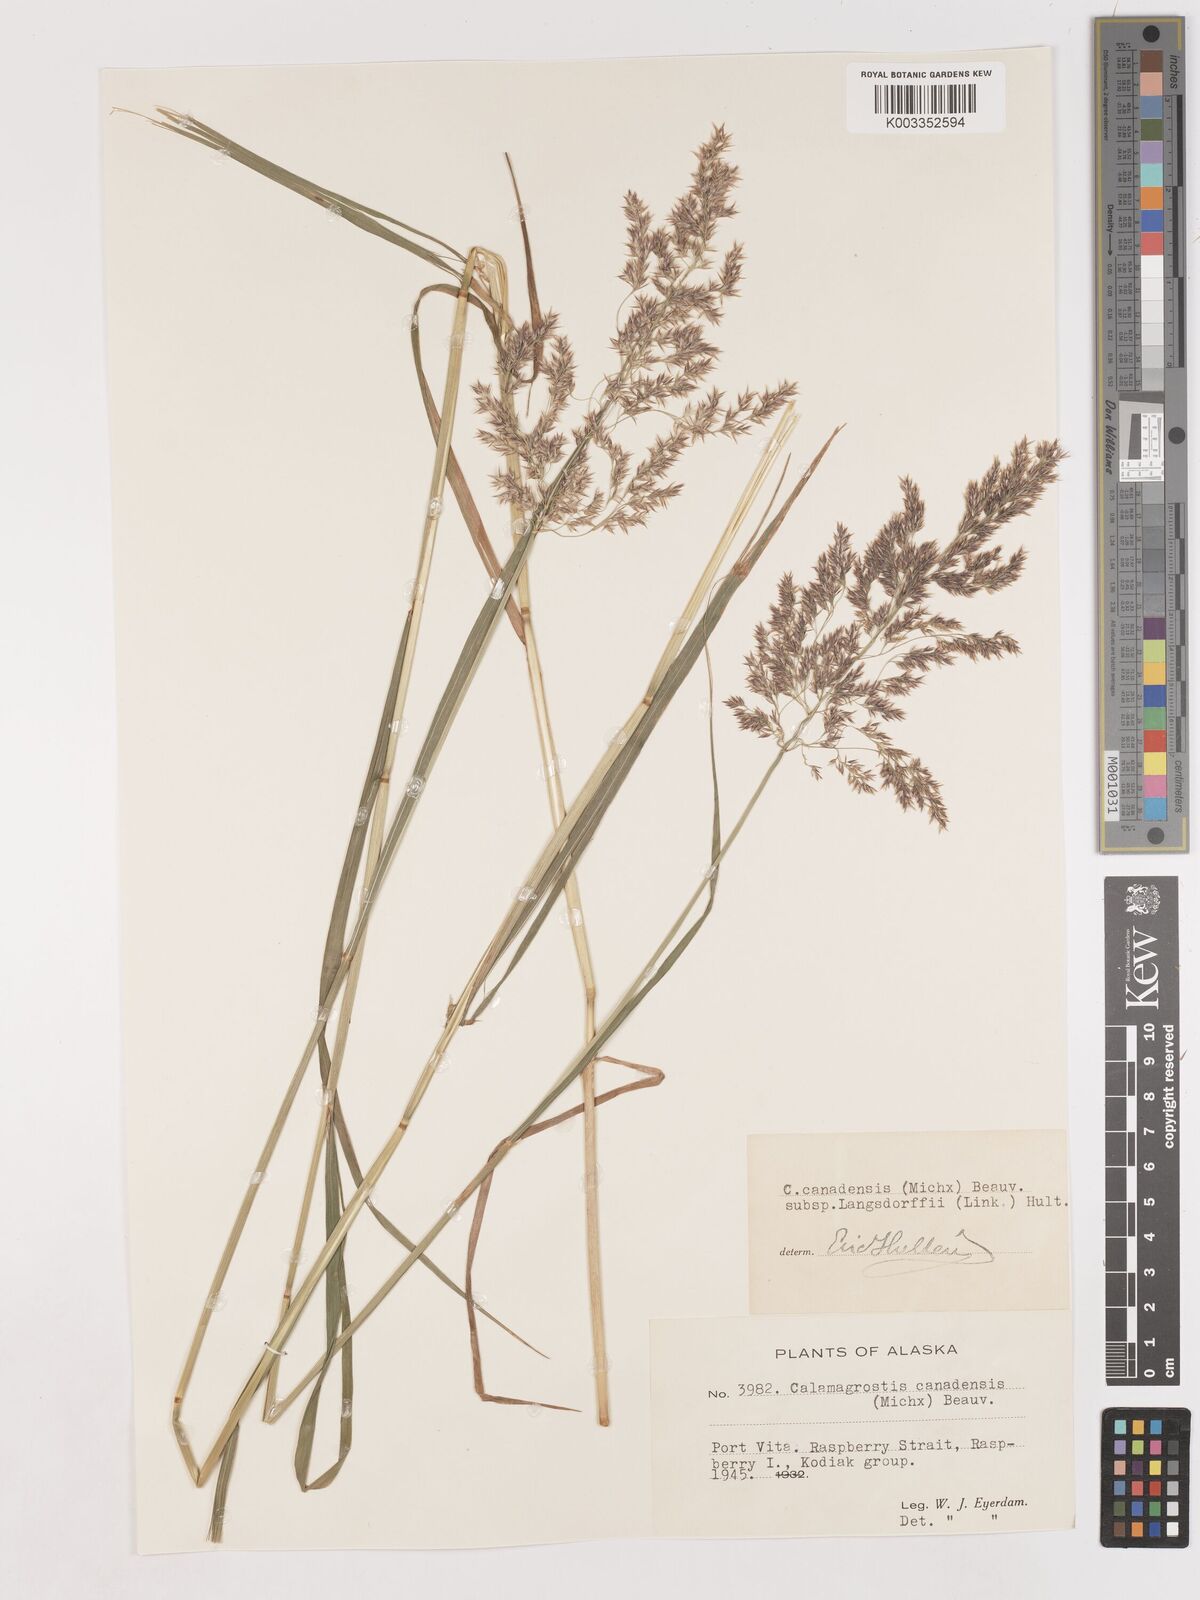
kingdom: Plantae
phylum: Tracheophyta
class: Liliopsida
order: Poales
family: Poaceae
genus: Calamagrostis
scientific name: Calamagrostis canadensis
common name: Canada bluejoint
